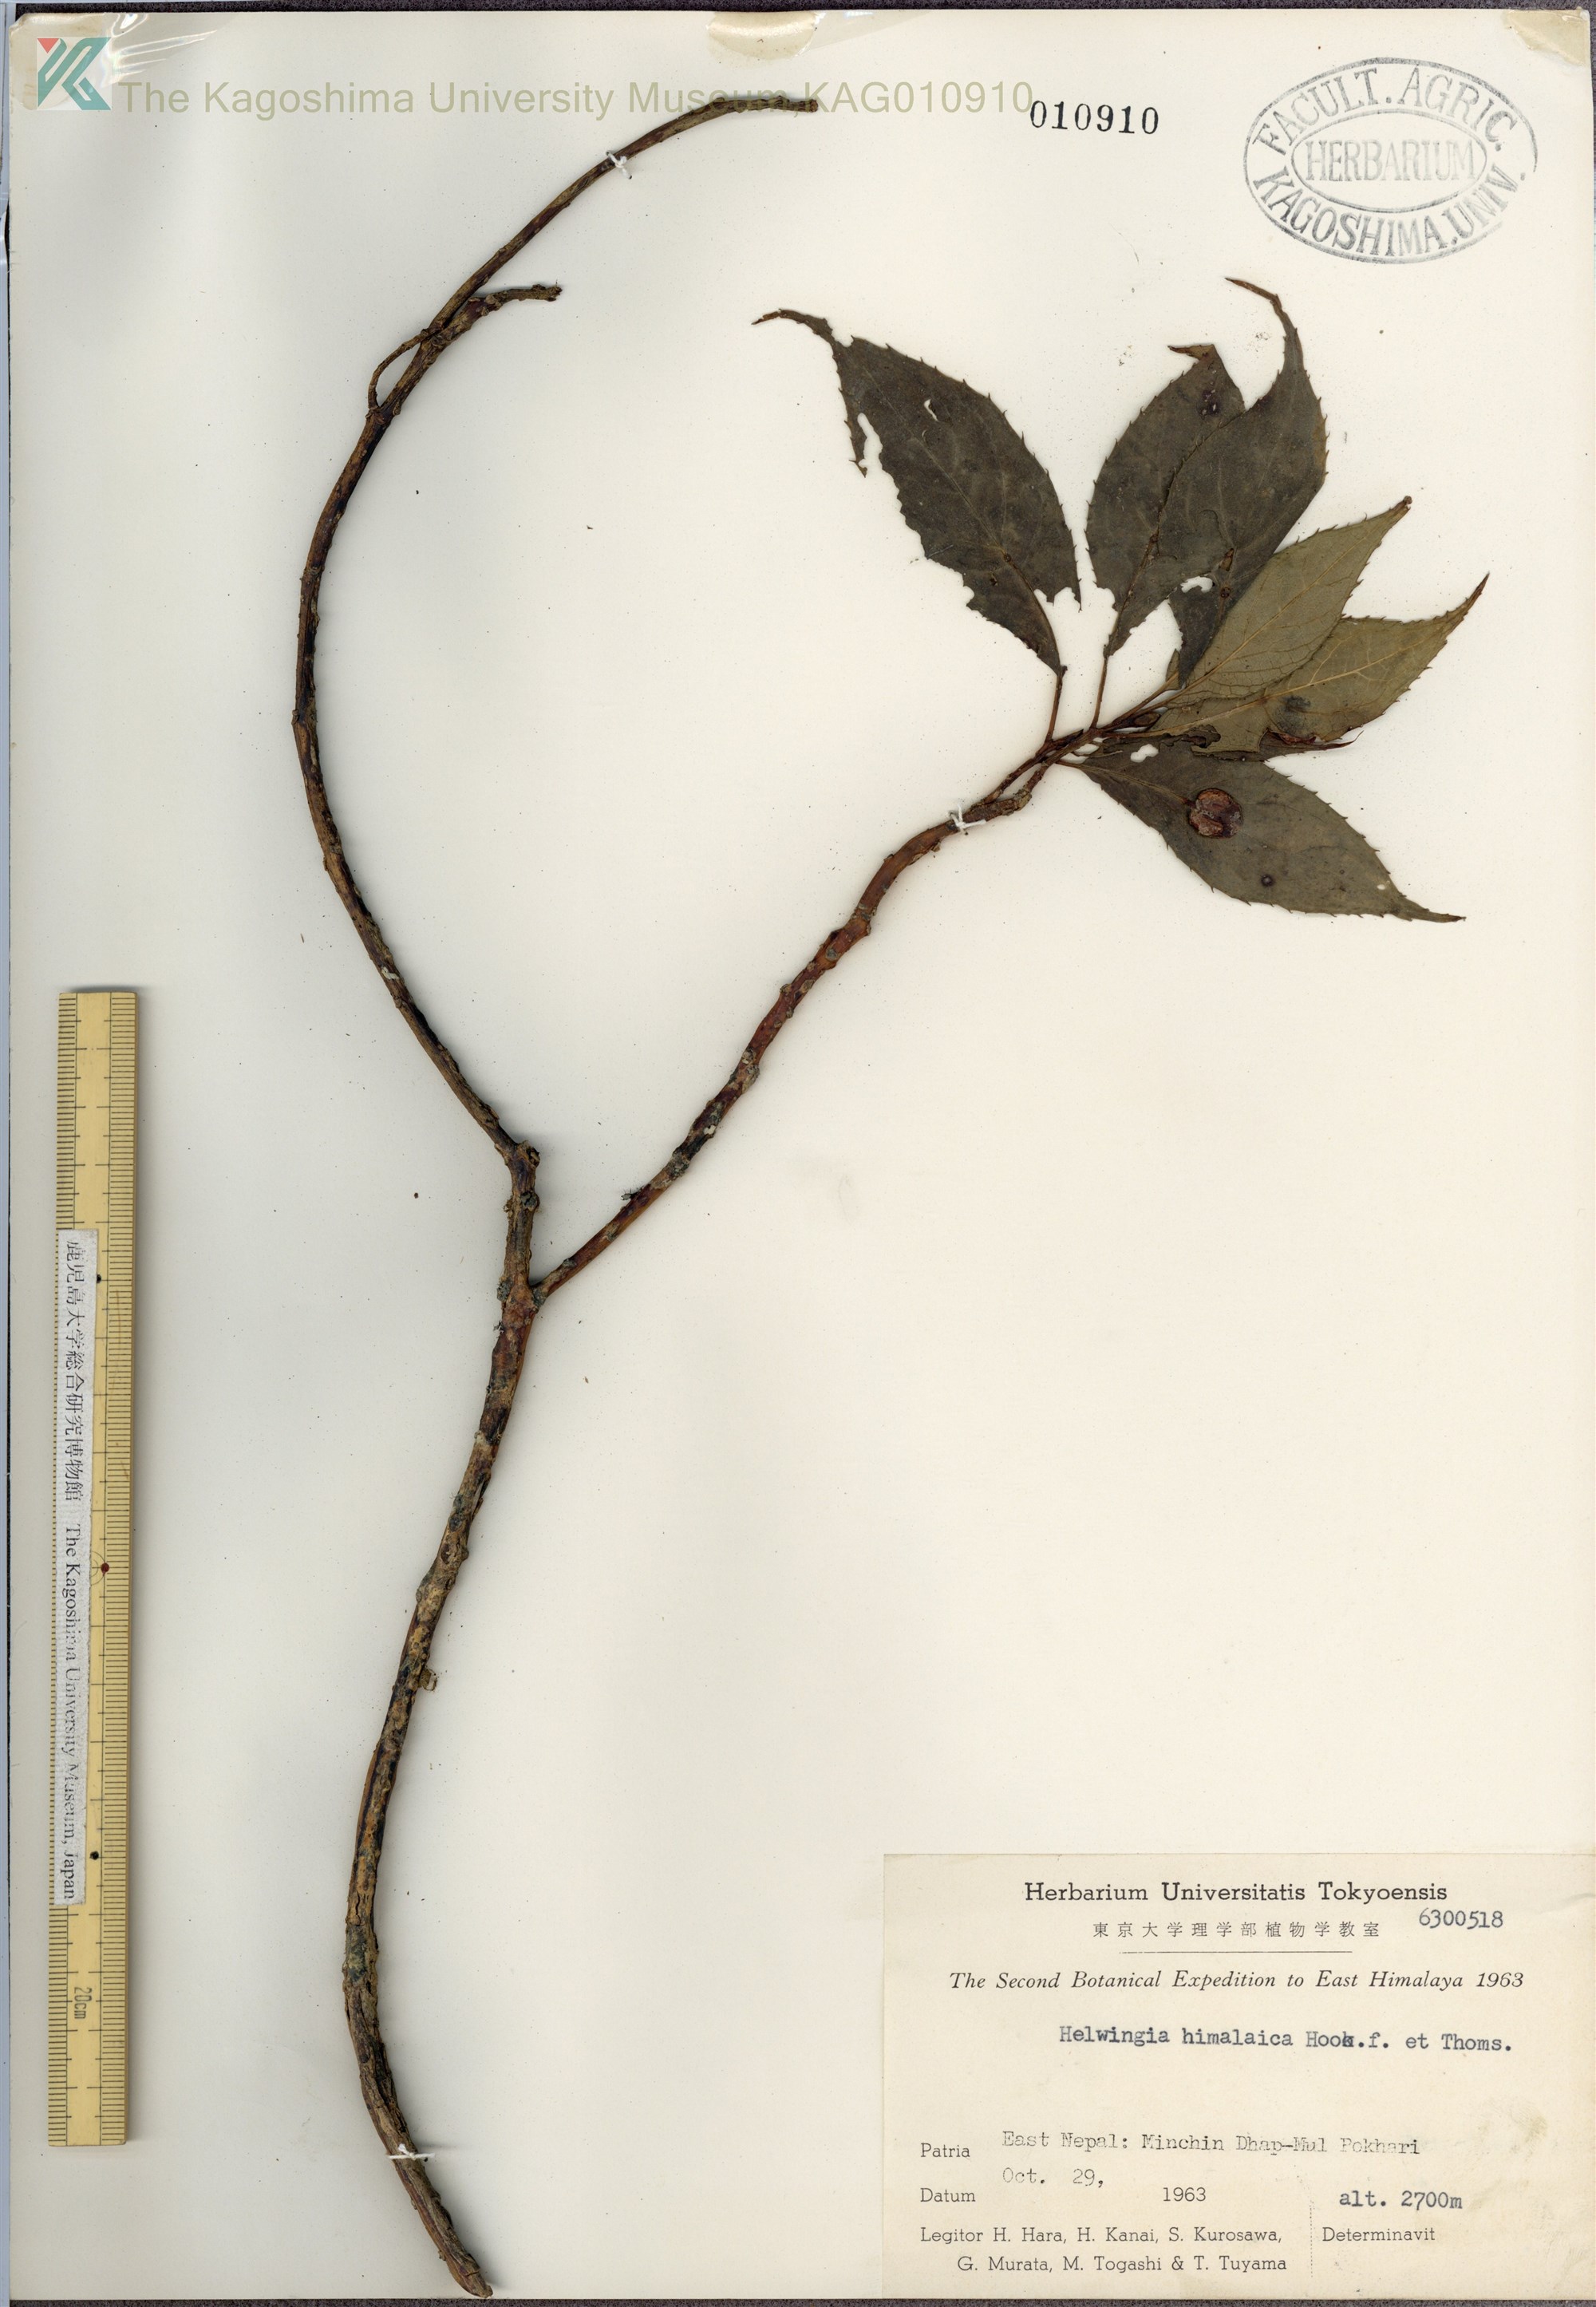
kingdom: Plantae
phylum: Tracheophyta
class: Magnoliopsida
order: Aquifoliales
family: Helwingiaceae
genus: Helwingia
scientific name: Helwingia himalaica
